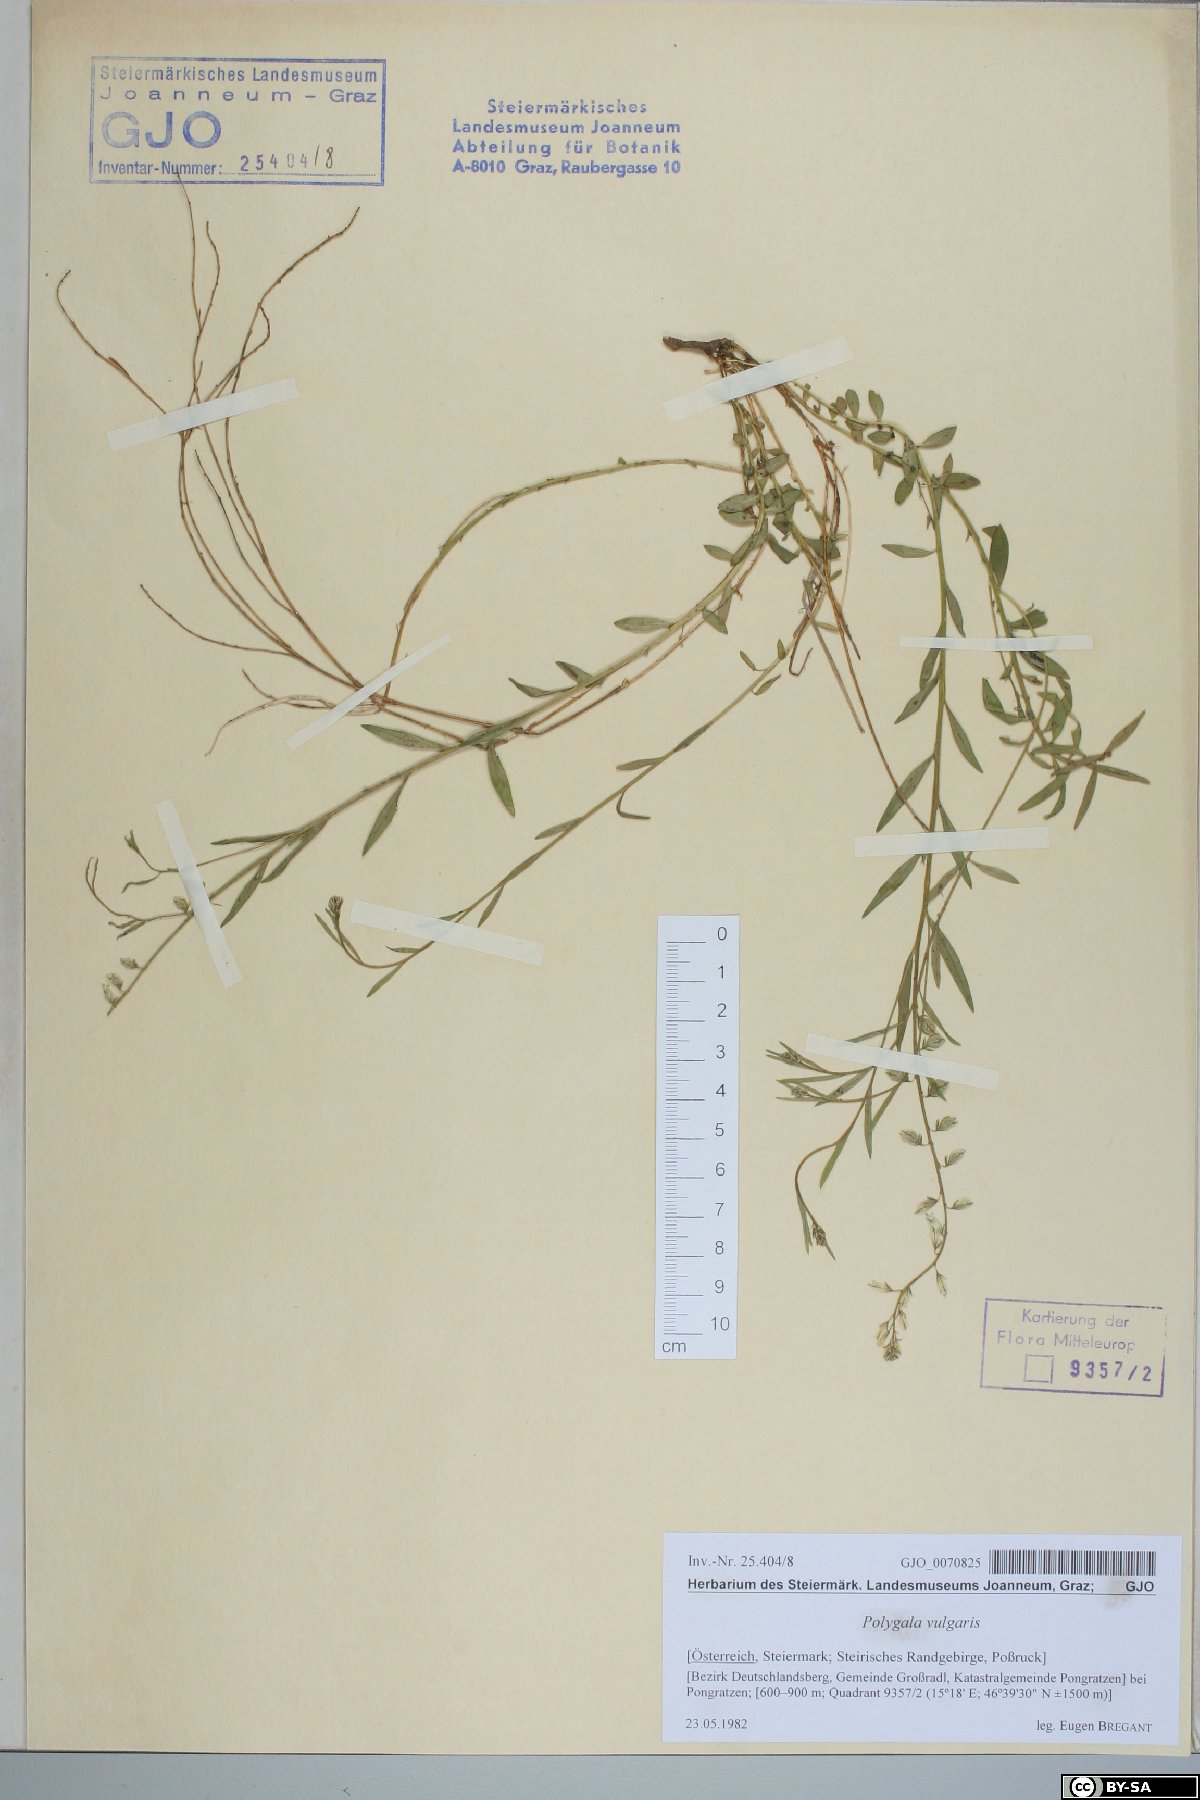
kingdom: Plantae
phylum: Tracheophyta
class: Magnoliopsida
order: Fabales
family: Polygalaceae
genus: Polygala
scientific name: Polygala vulgaris
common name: Common milkwort
